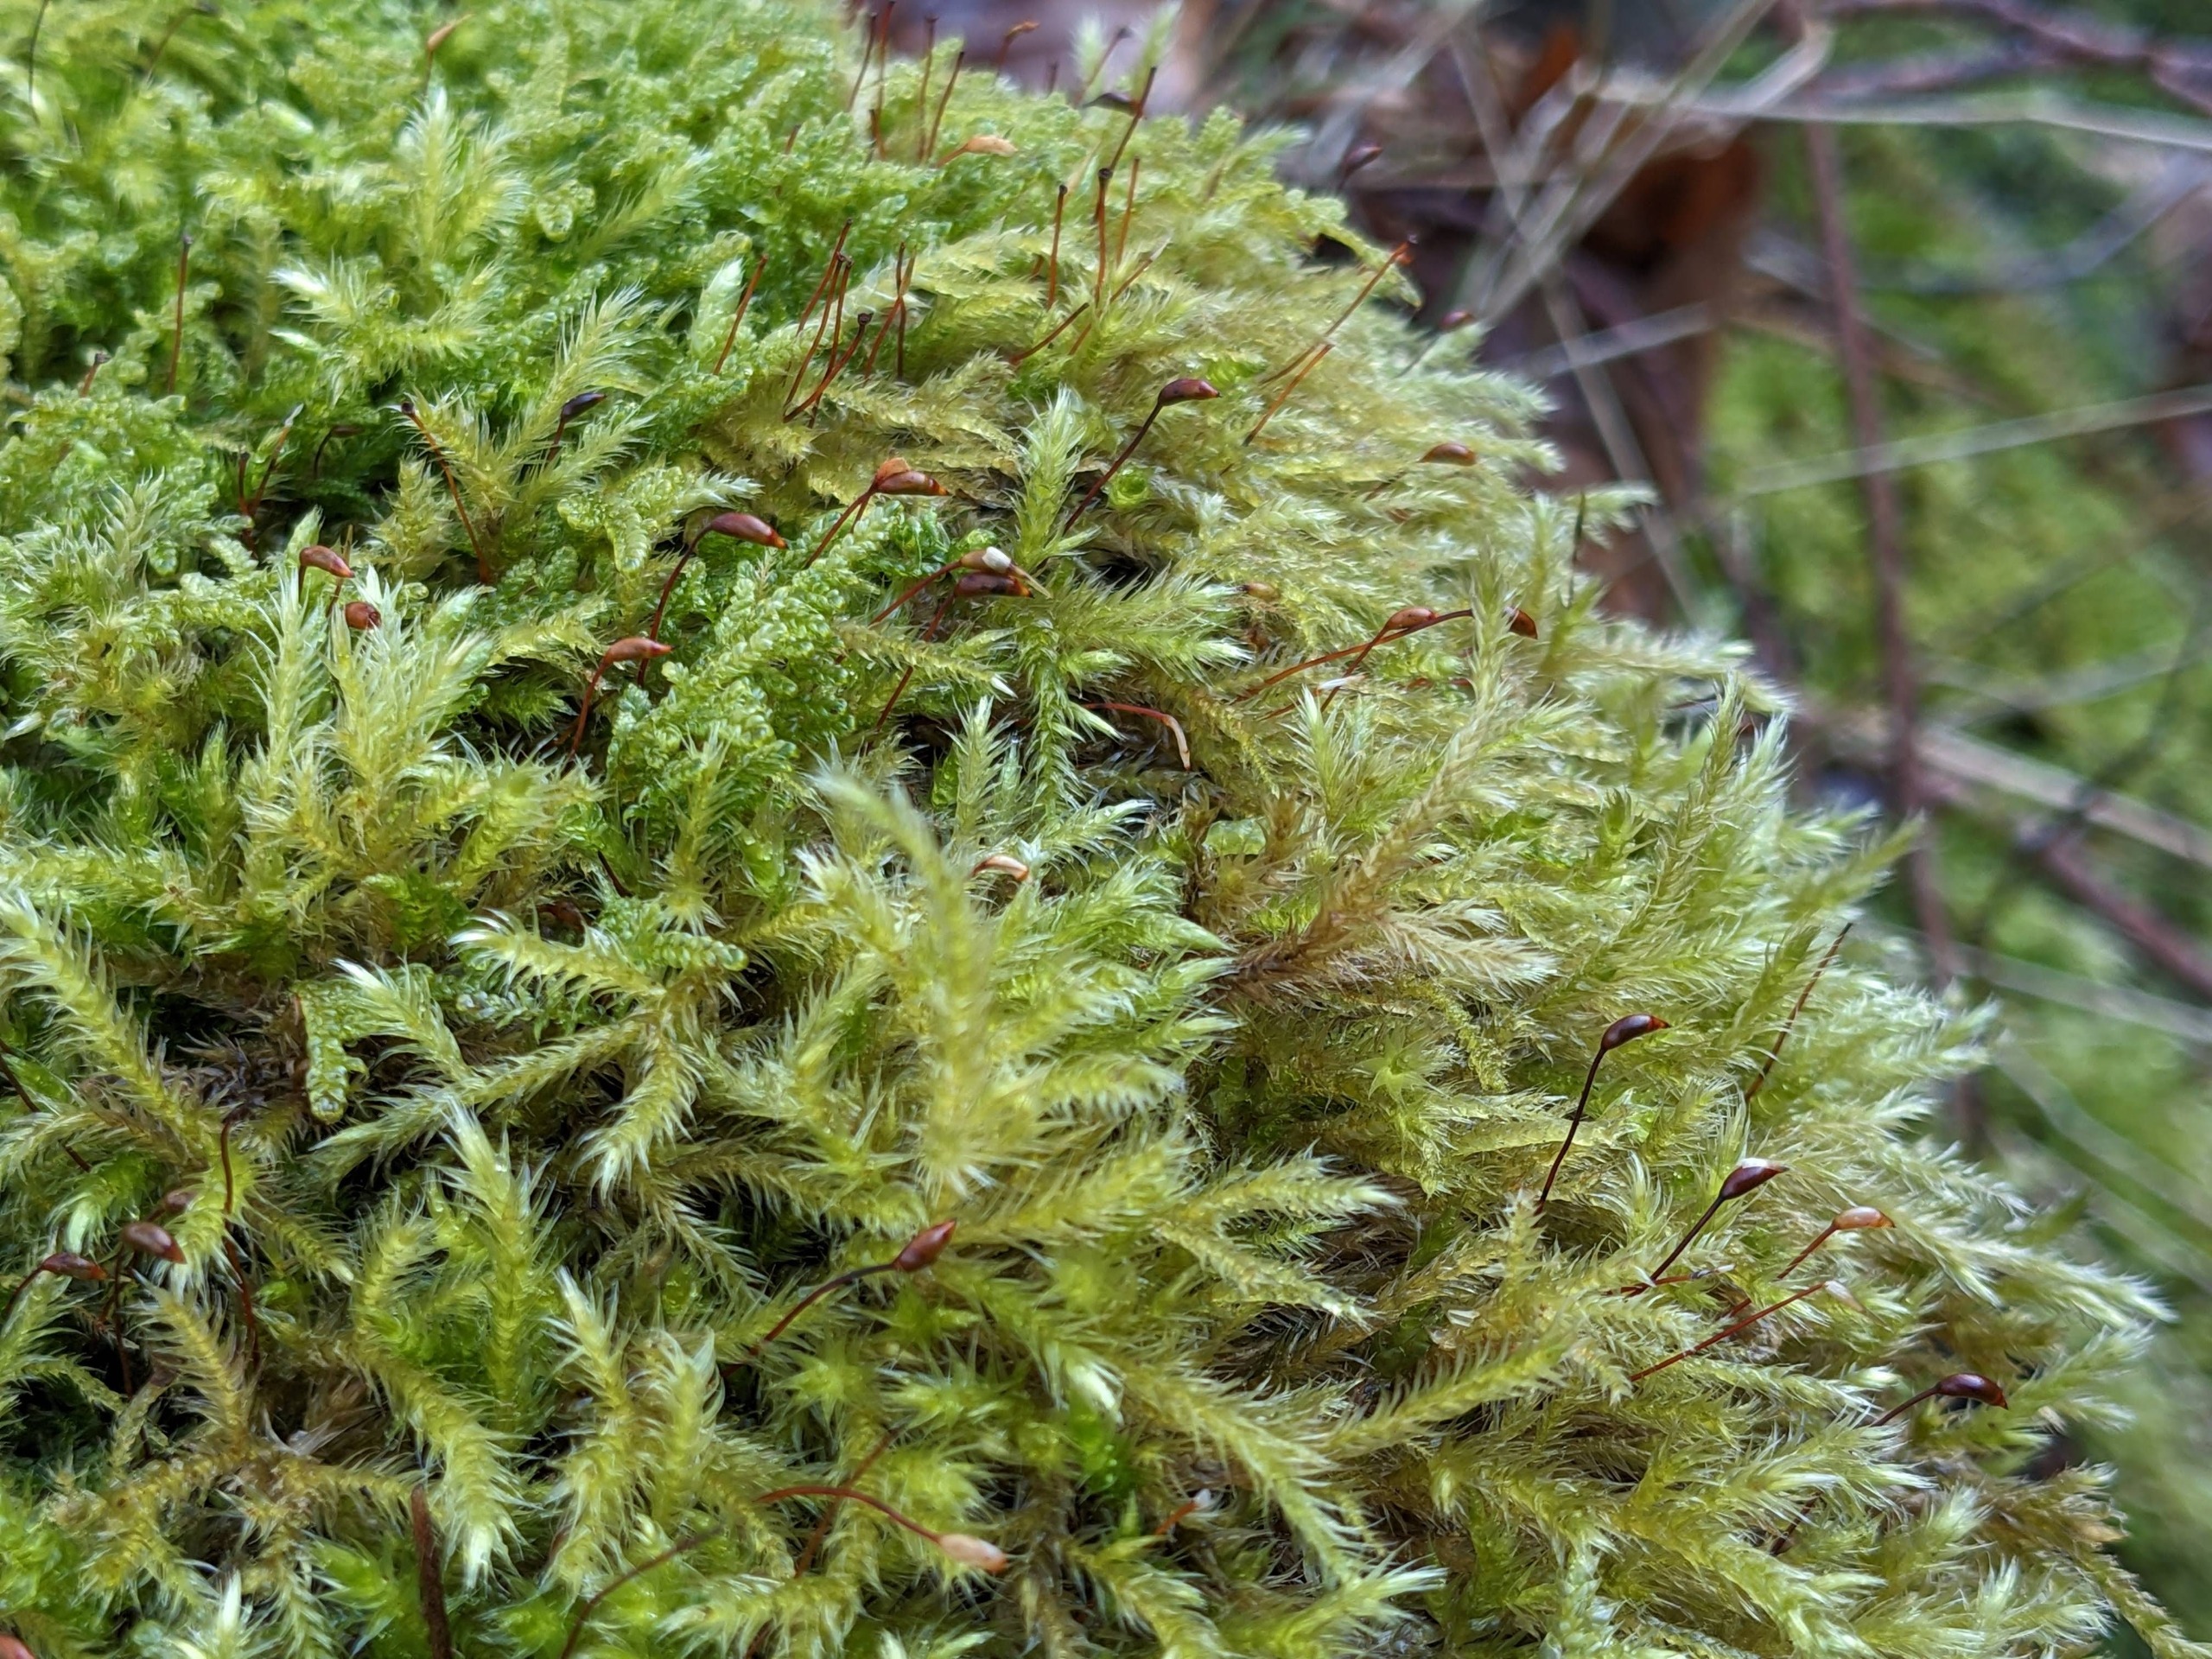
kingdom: Plantae
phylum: Bryophyta
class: Bryopsida
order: Hypnales
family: Brachytheciaceae
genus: Brachythecium
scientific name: Brachythecium salebrosum
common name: Skov-kortkapsel
